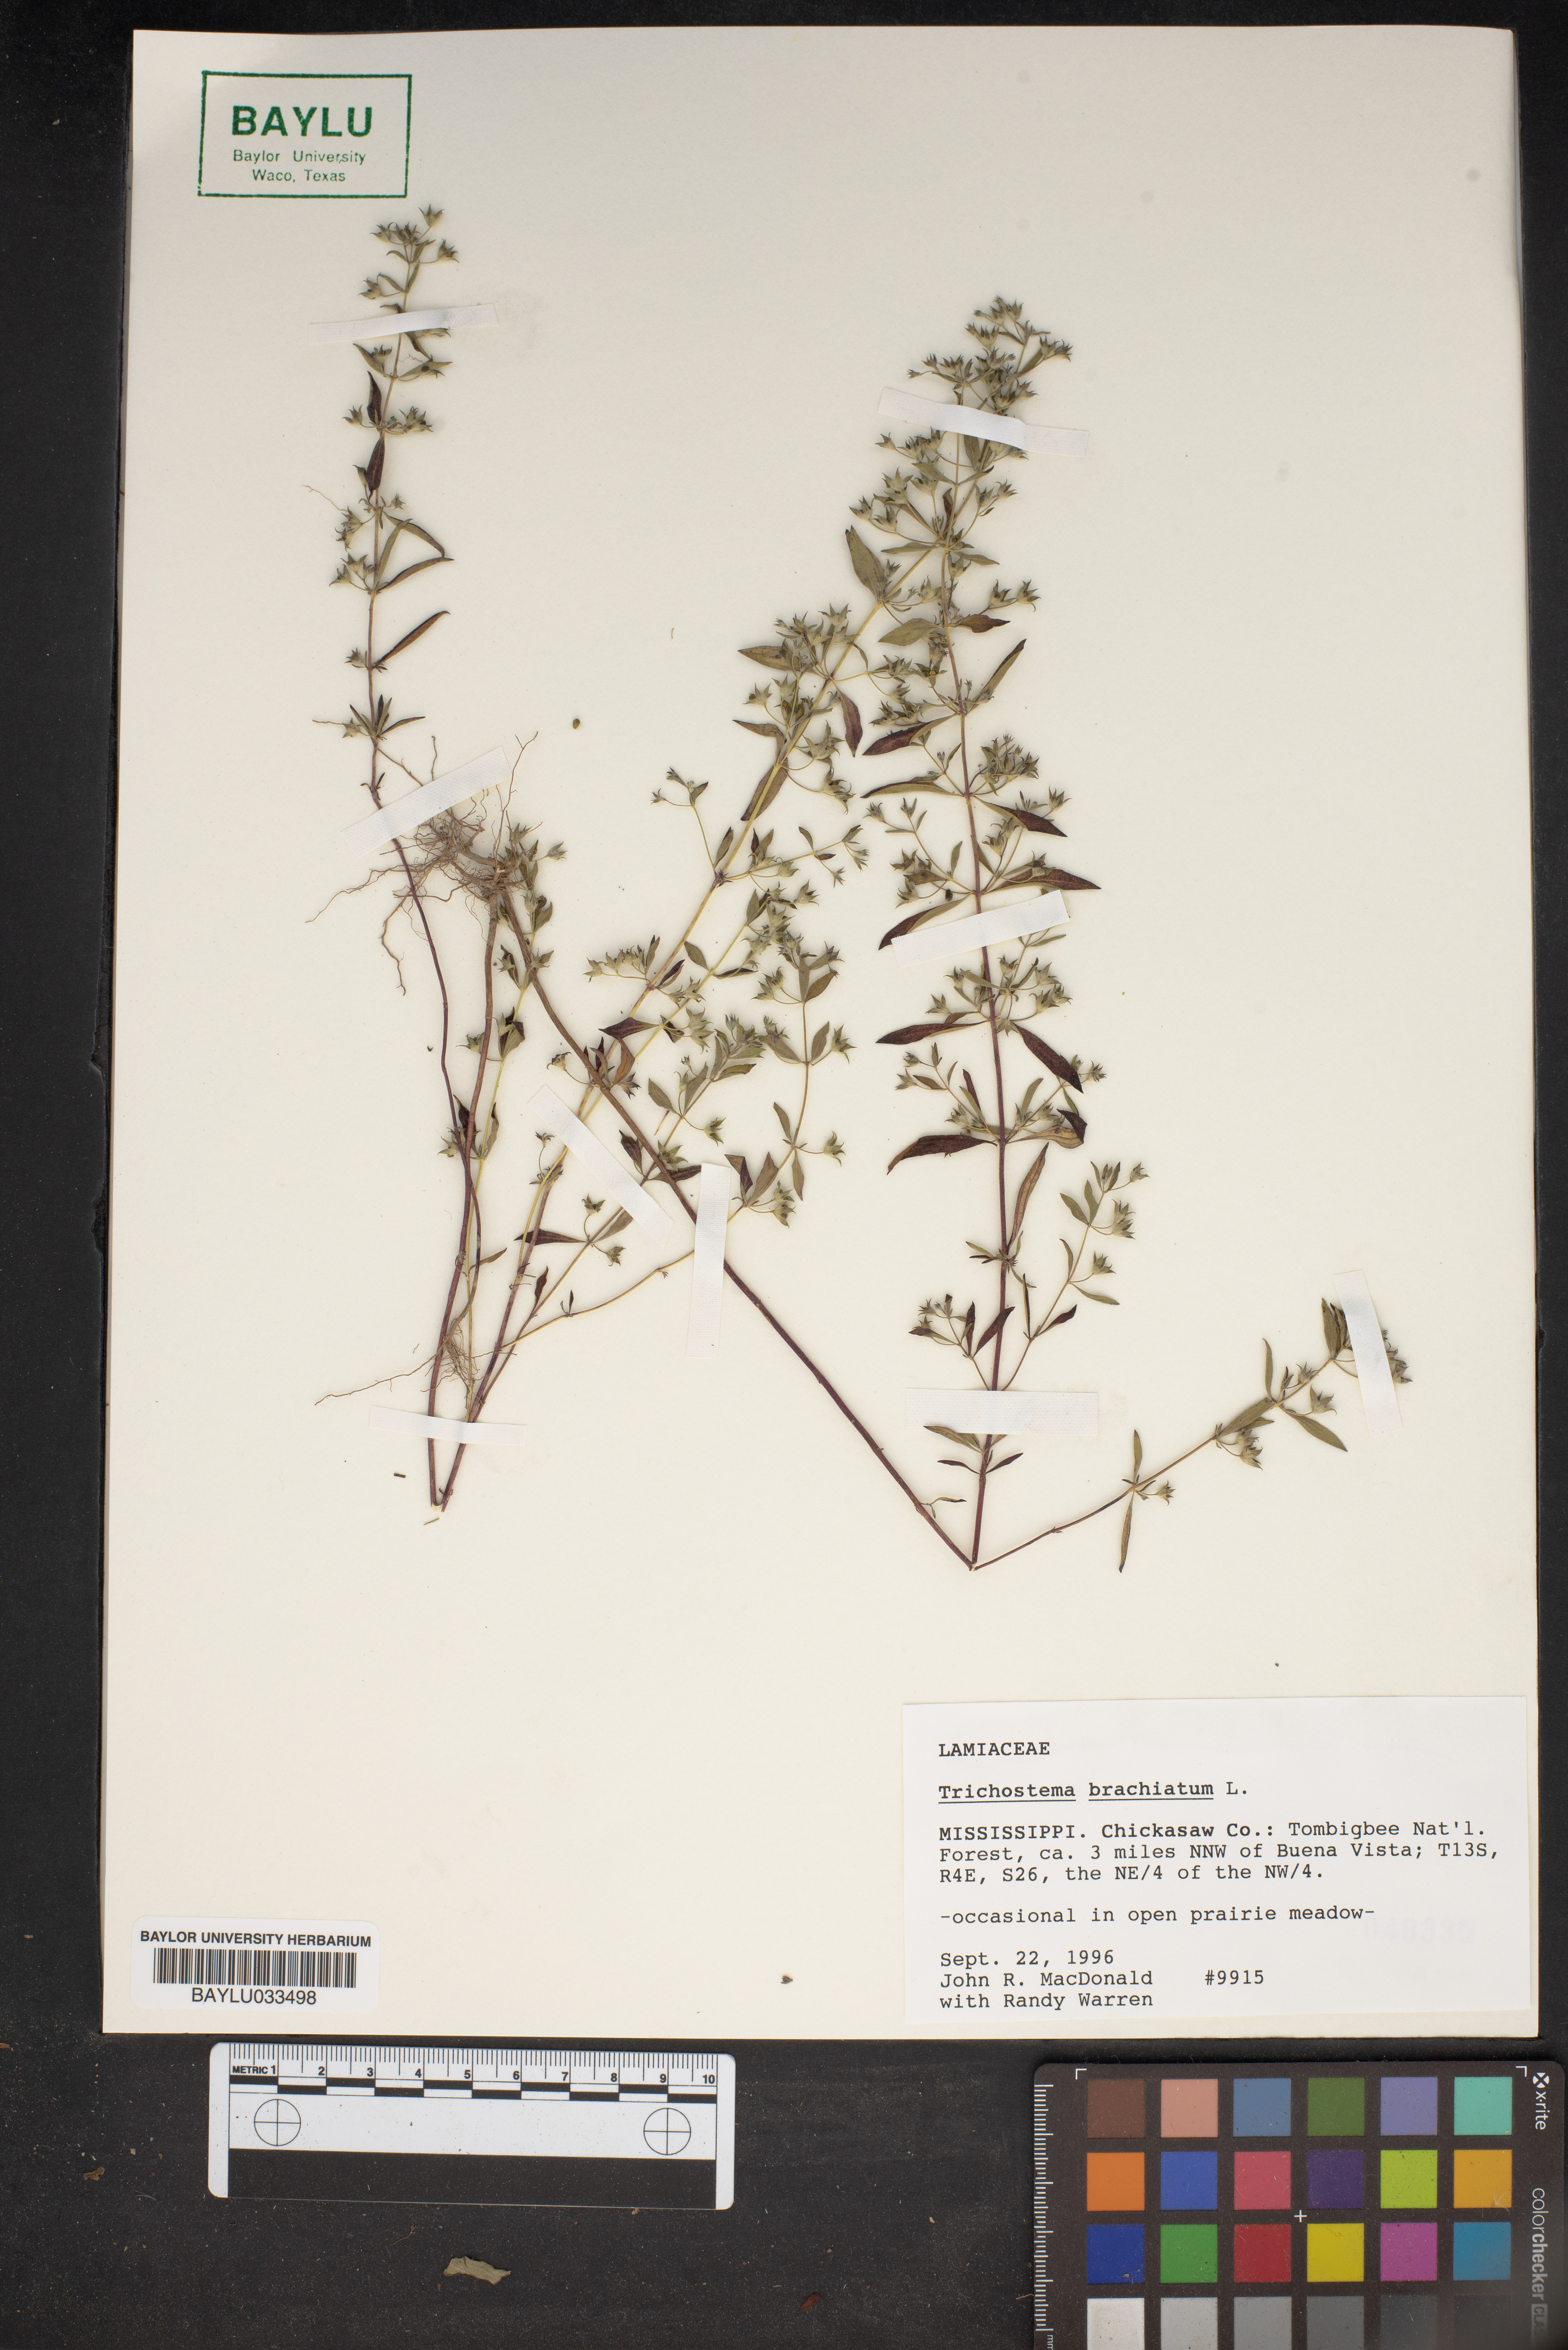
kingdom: Plantae
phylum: Tracheophyta
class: Magnoliopsida
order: Lamiales
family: Lamiaceae
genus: Trichostema
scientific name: Trichostema brachiatum
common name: False pennyroyal
